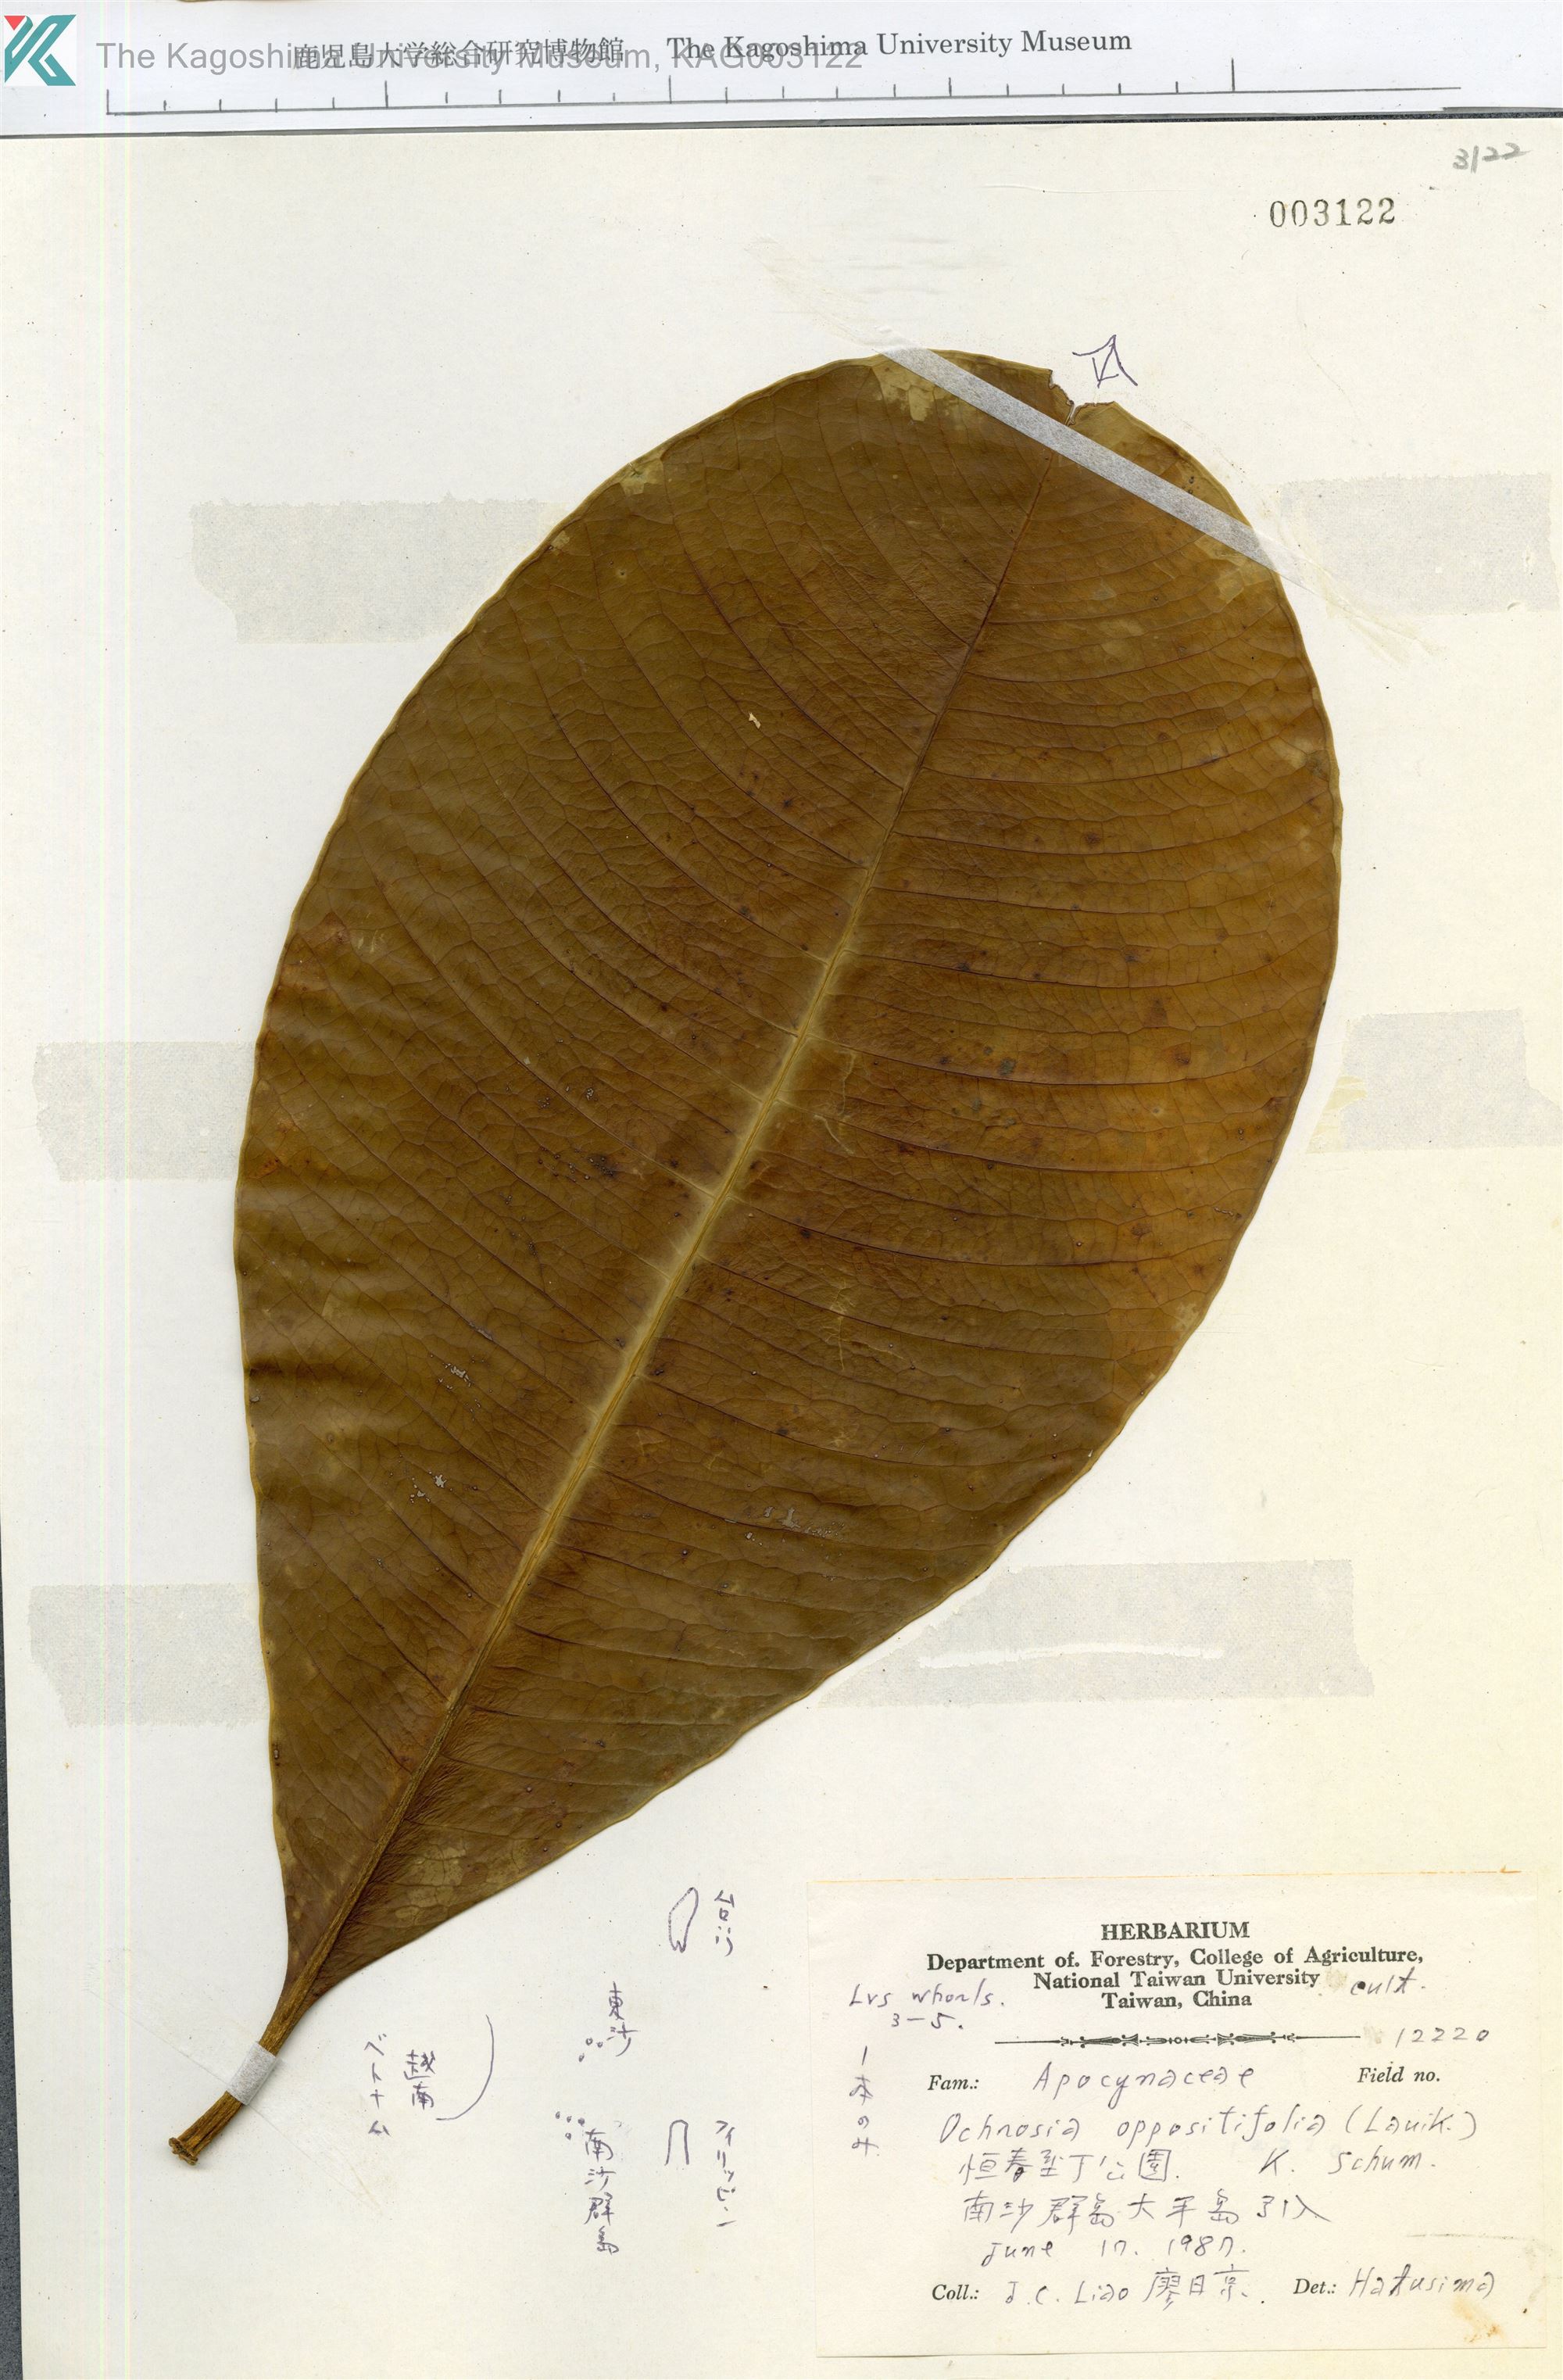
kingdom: Plantae
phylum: Tracheophyta
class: Magnoliopsida
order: Gentianales
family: Apocynaceae
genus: Ochrosia
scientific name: Ochrosia oppositifolia
